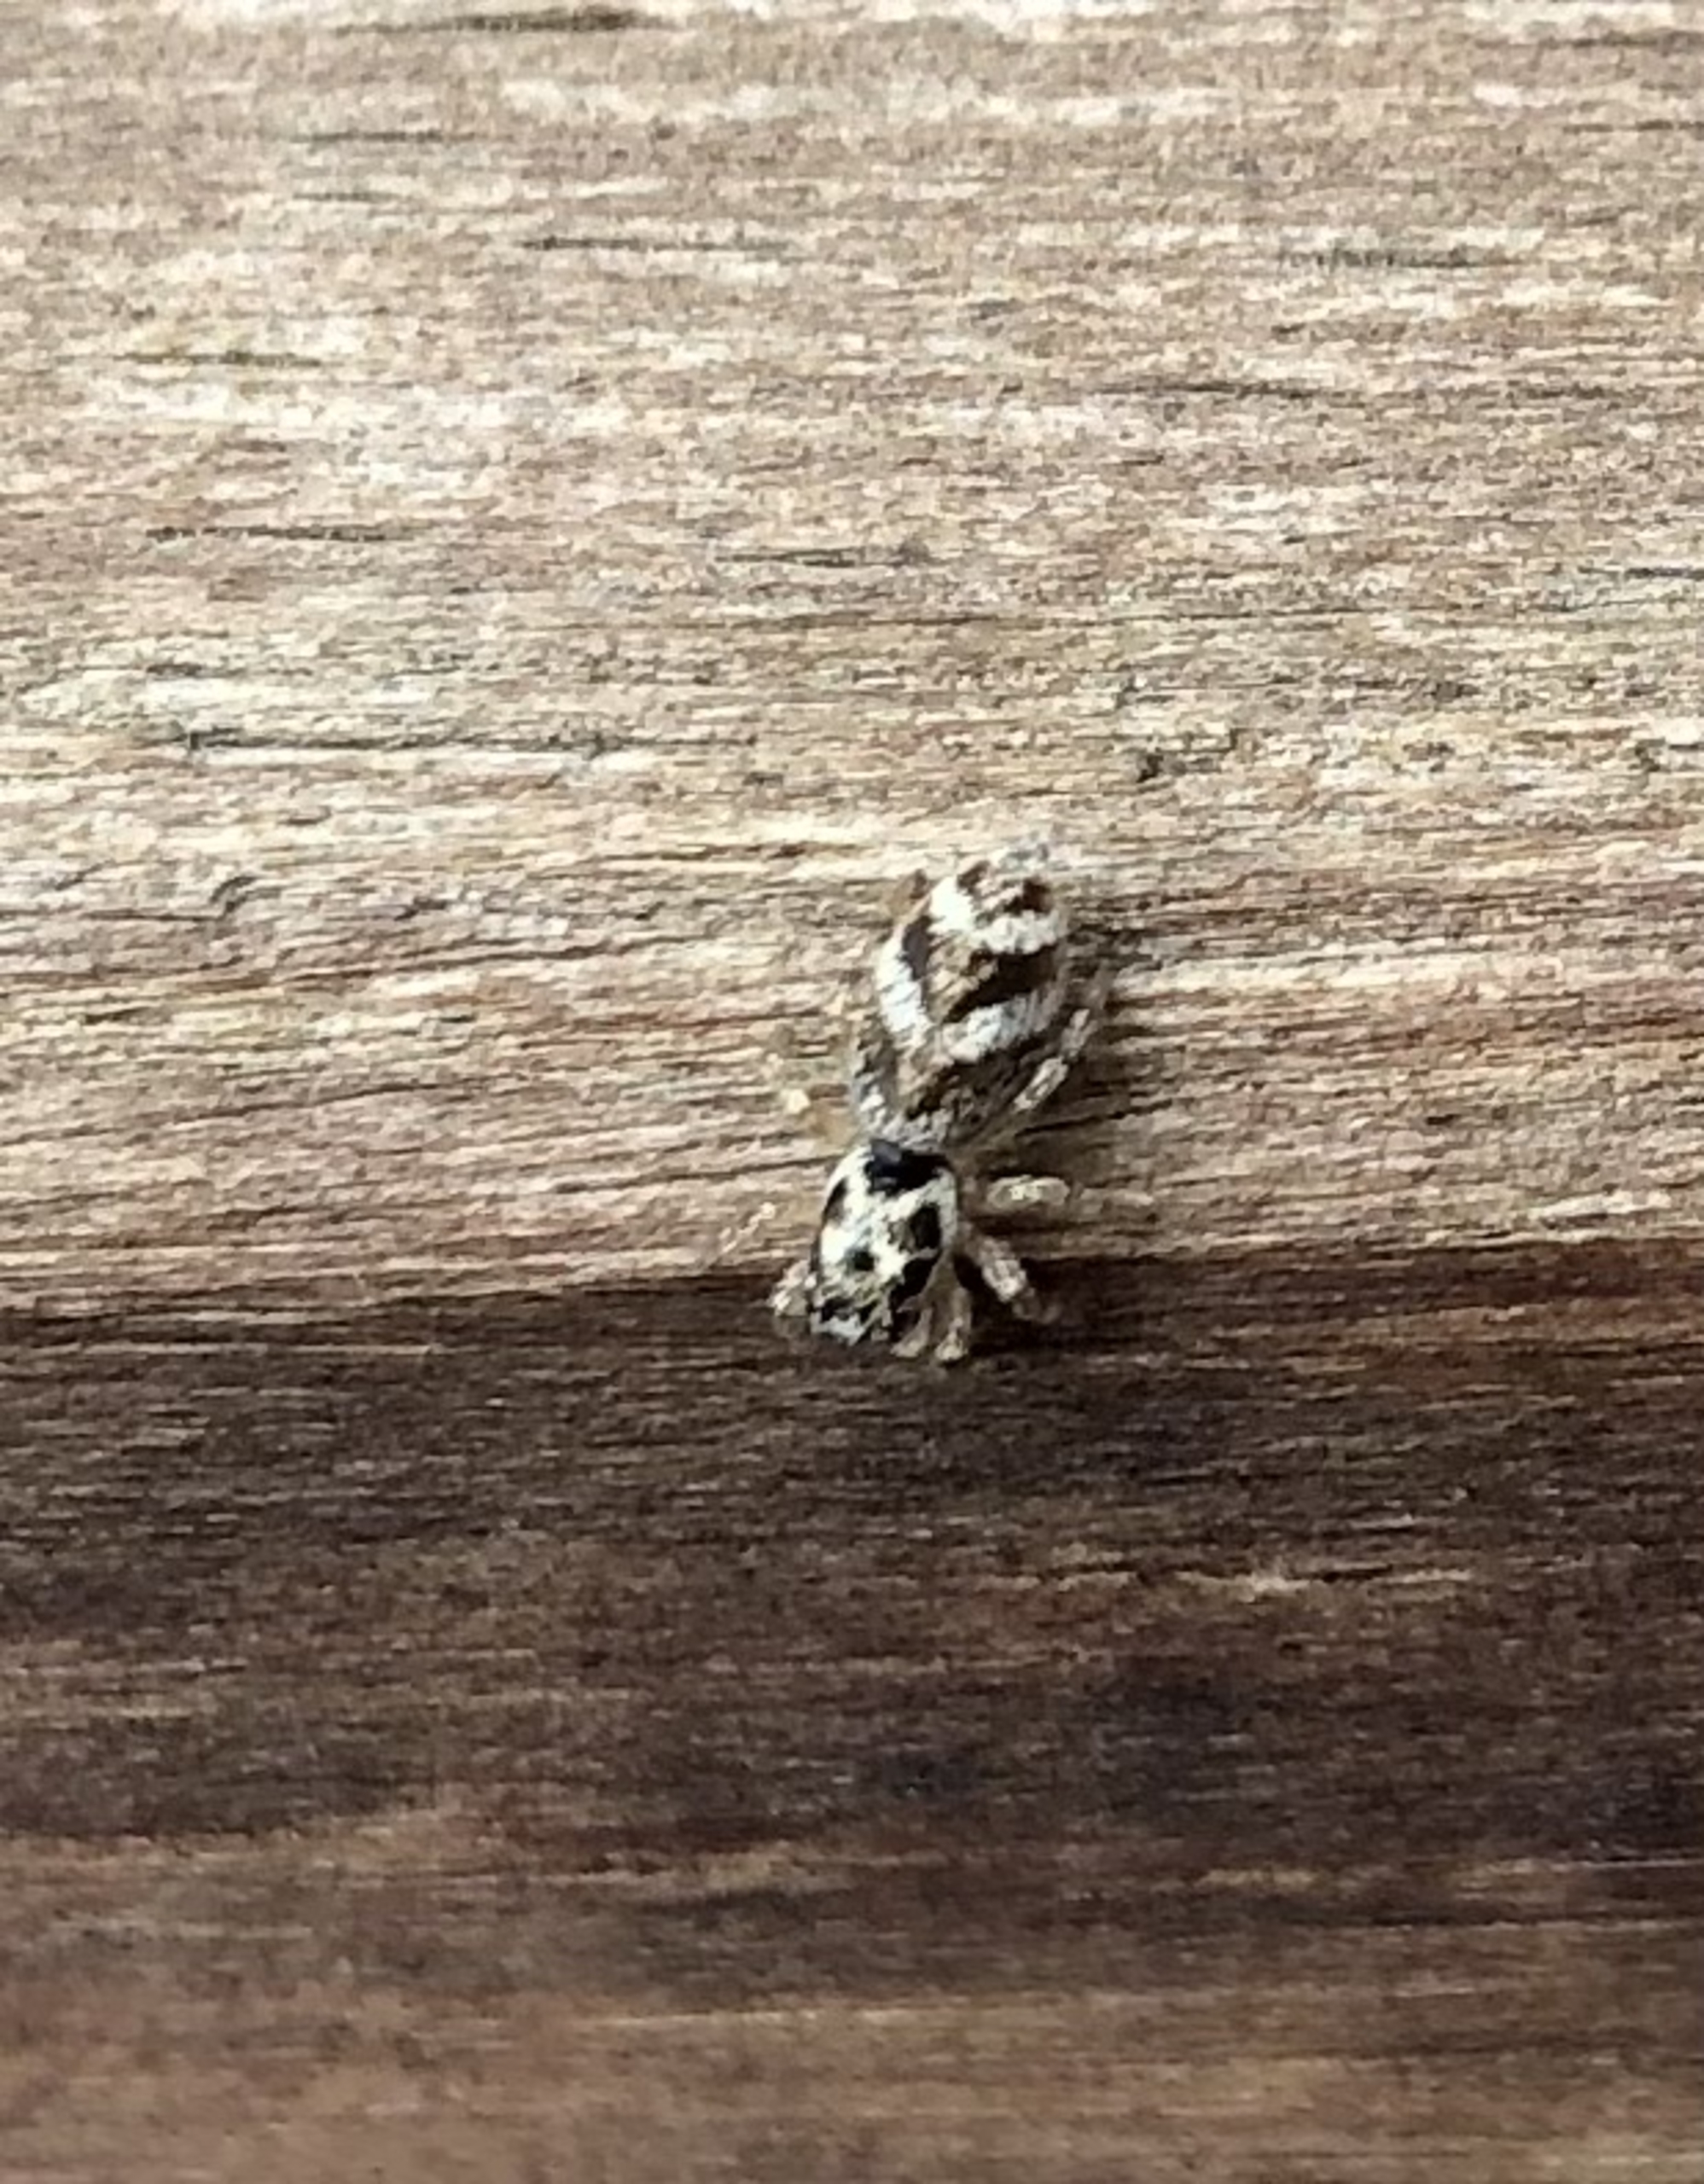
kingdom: Animalia
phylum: Arthropoda
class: Arachnida
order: Araneae
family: Salticidae
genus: Salticus
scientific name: Salticus scenicus
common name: Almindelig zebraedderkop
